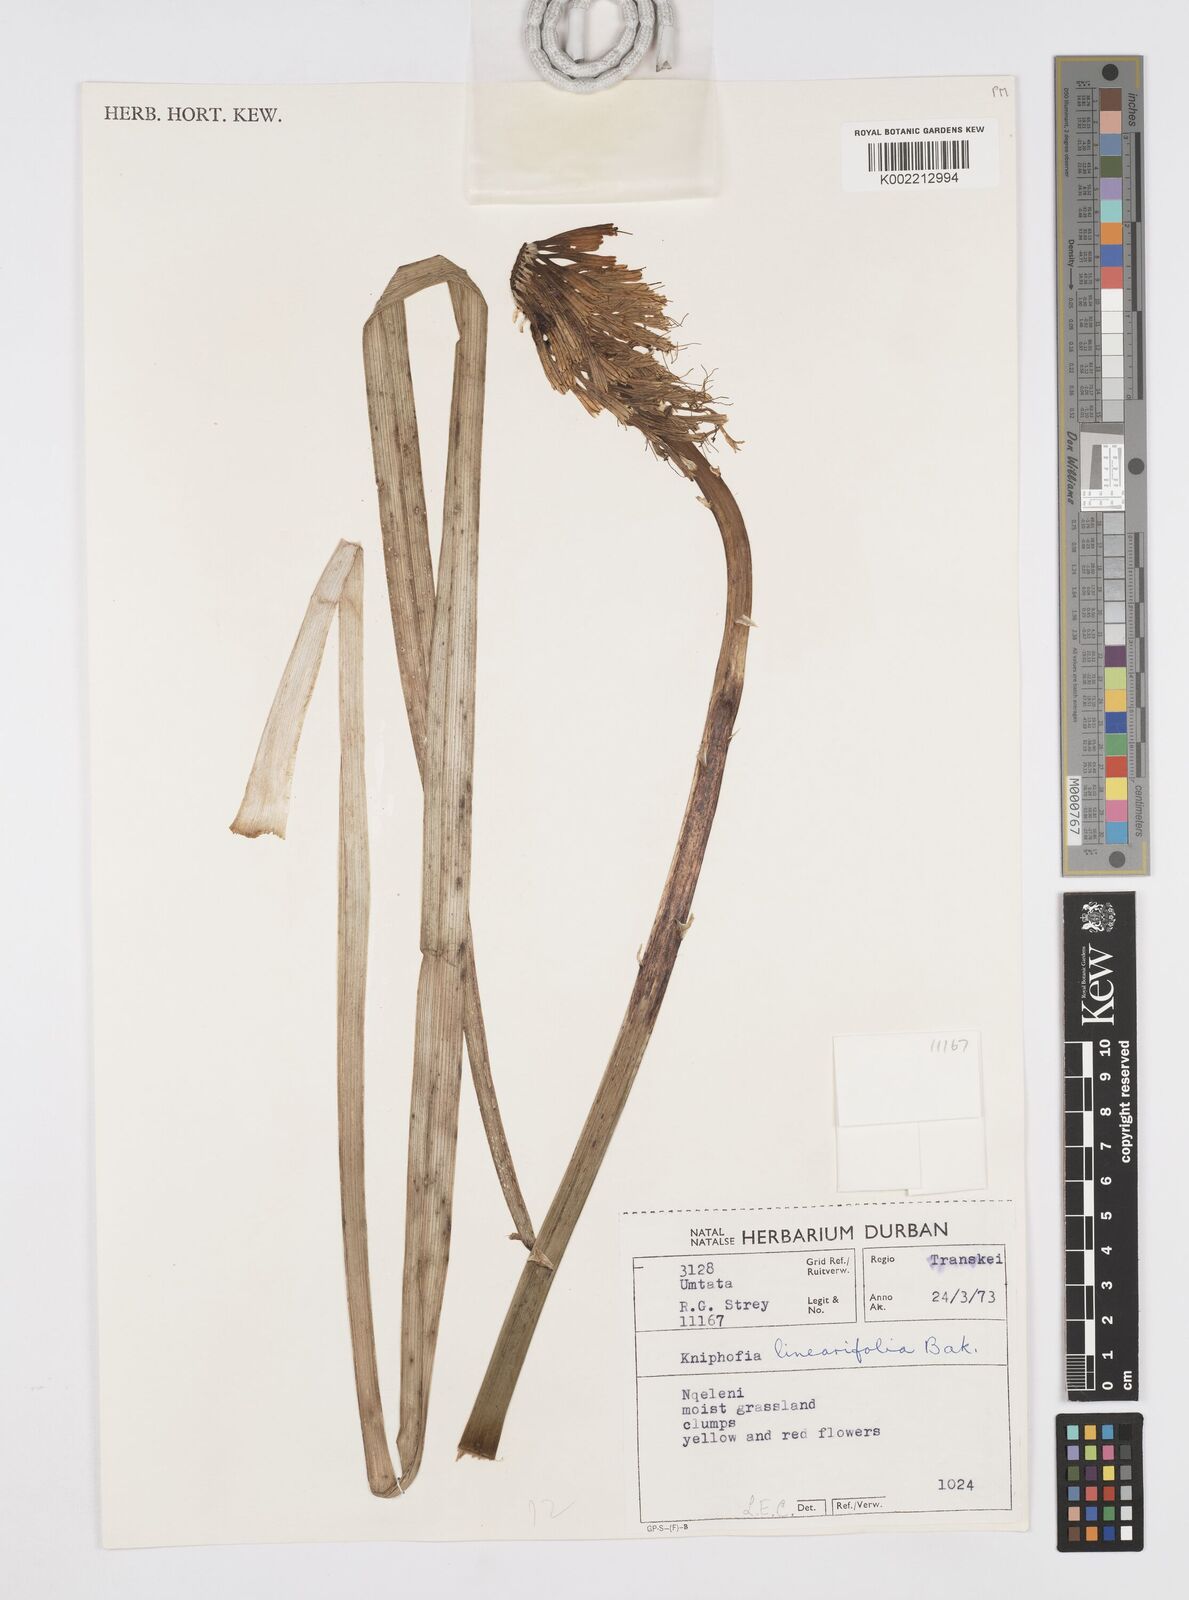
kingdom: Plantae
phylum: Tracheophyta
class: Liliopsida
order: Asparagales
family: Asphodelaceae
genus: Kniphofia
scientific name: Kniphofia linearifolia
